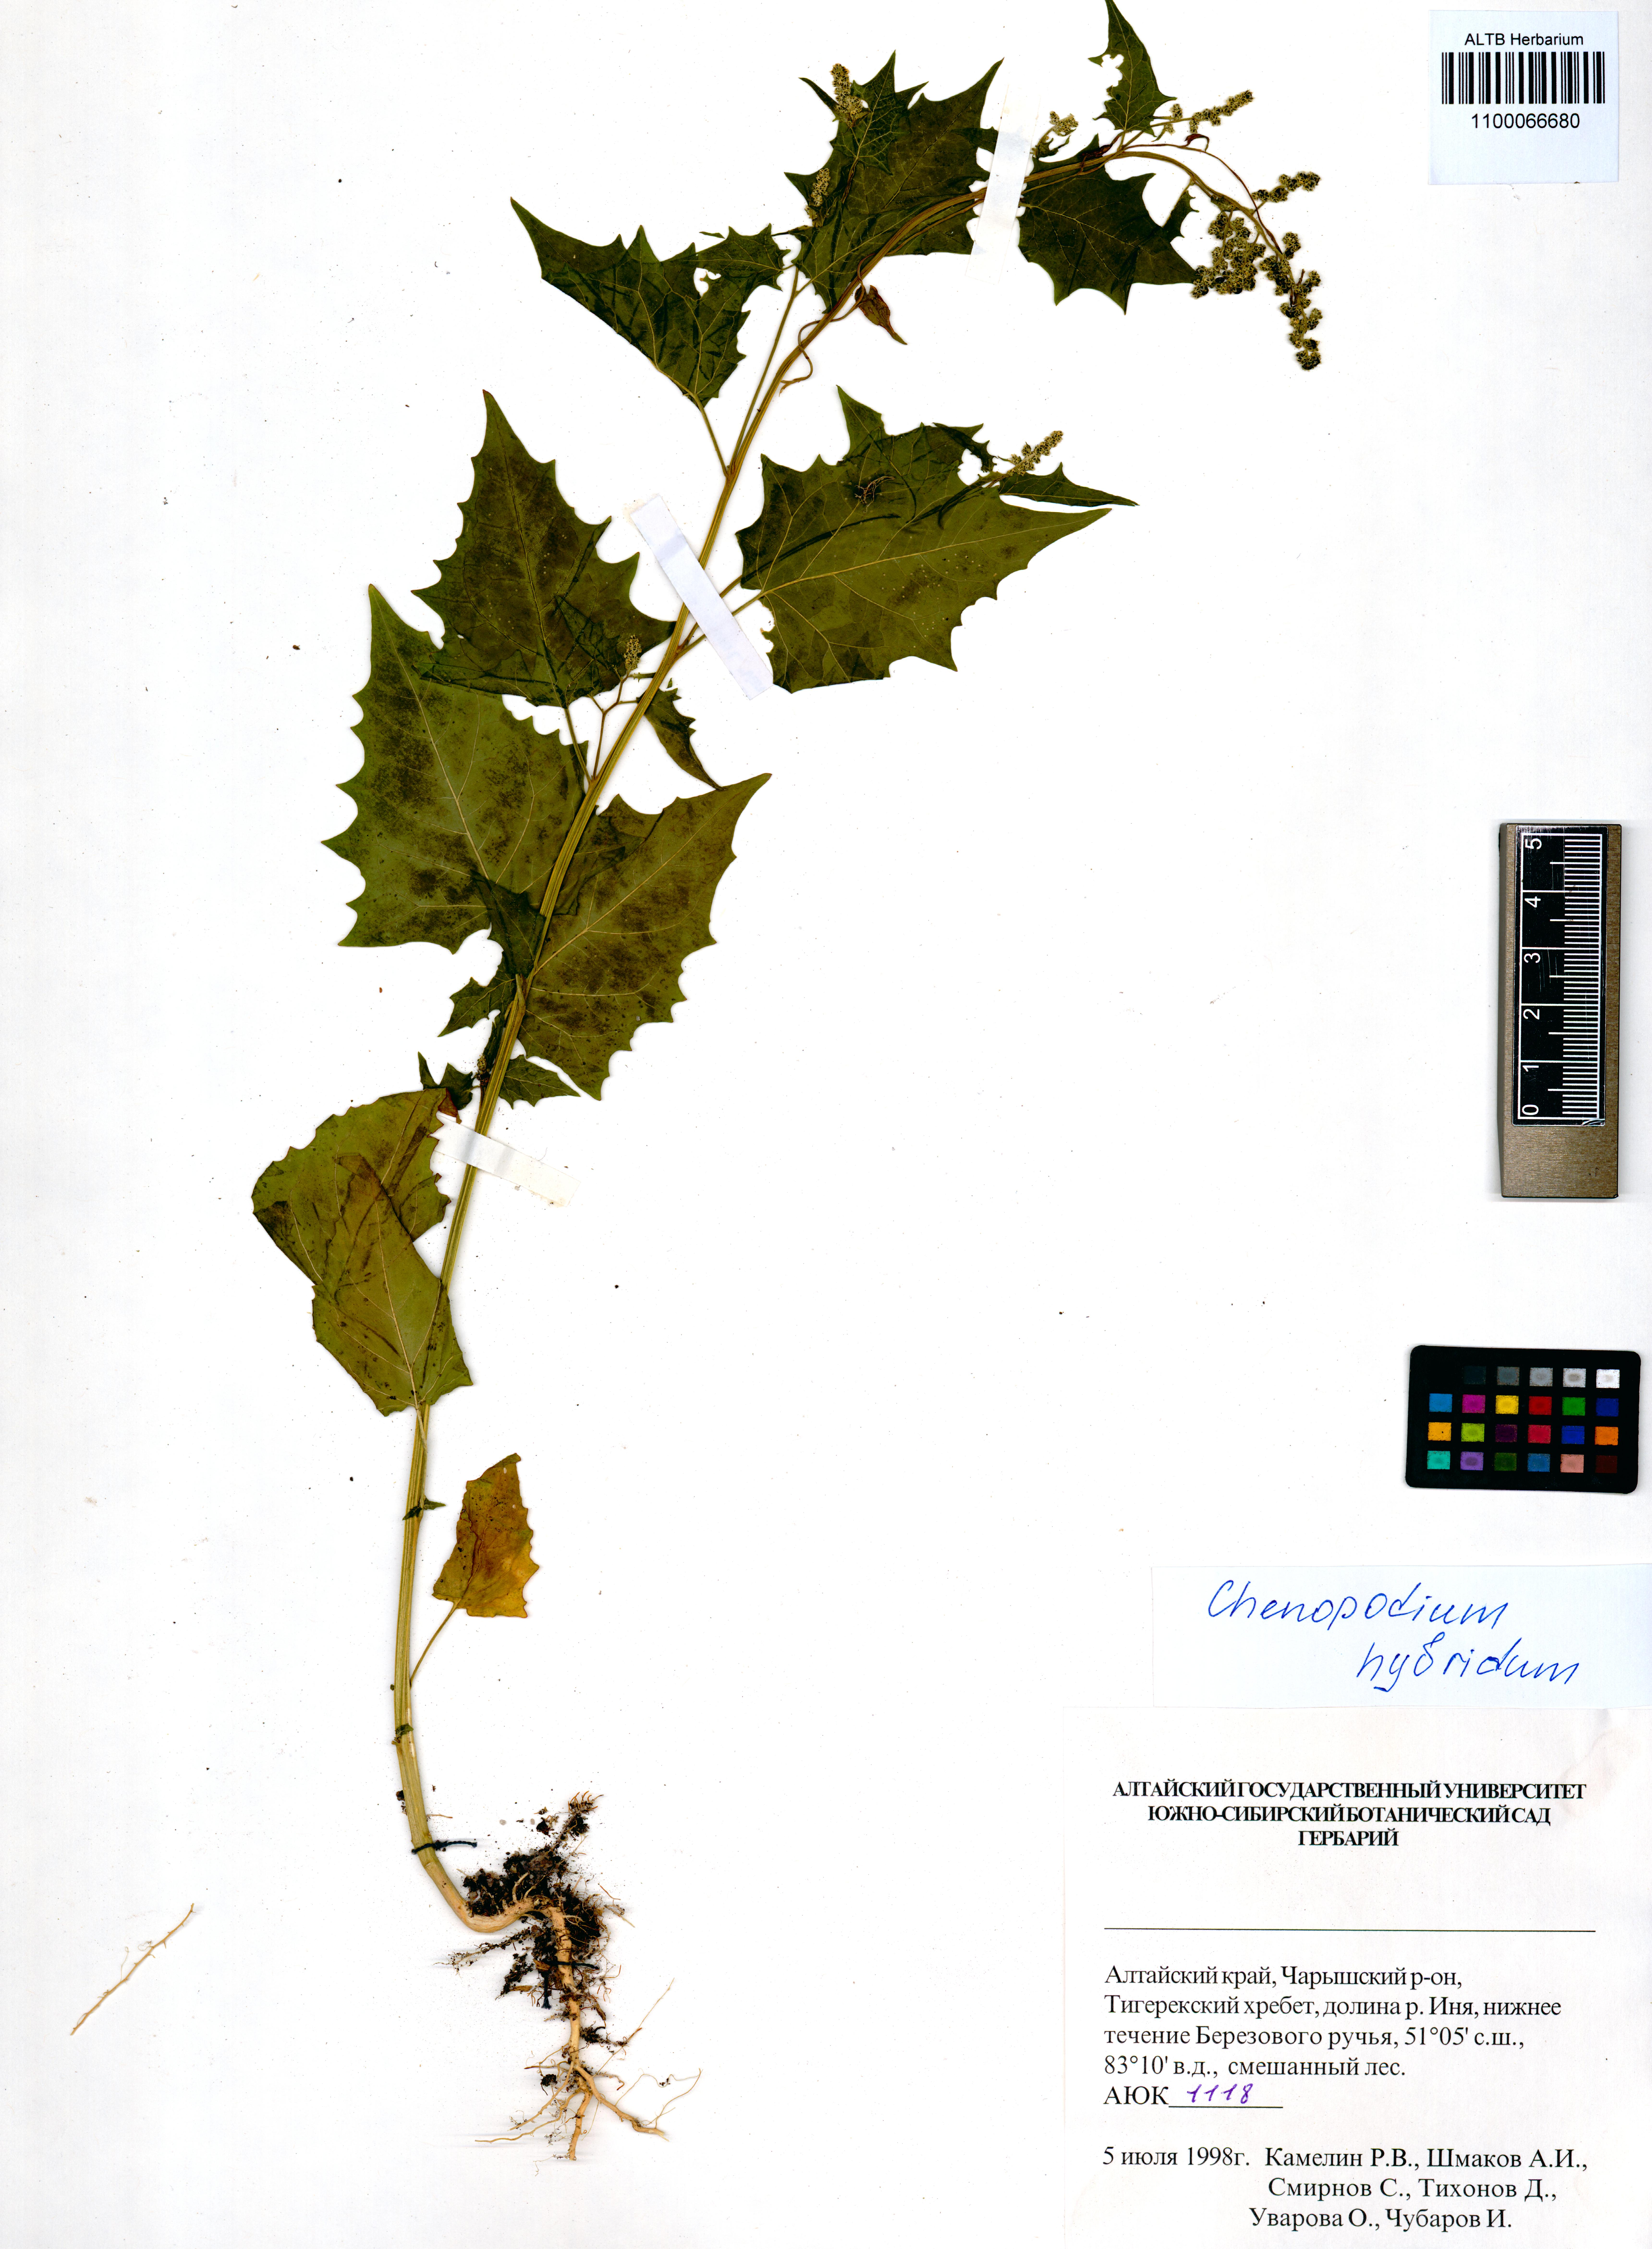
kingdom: Plantae
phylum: Tracheophyta
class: Magnoliopsida
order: Caryophyllales
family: Amaranthaceae
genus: Chenopodiastrum
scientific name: Chenopodiastrum hybridum
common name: Mapleleaf goosefoot
